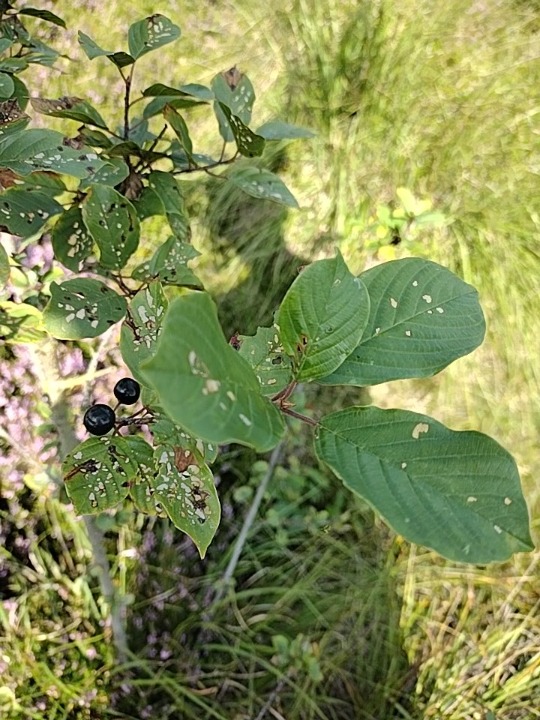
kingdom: Plantae
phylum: Tracheophyta
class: Magnoliopsida
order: Rosales
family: Rhamnaceae
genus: Frangula
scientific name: Frangula alnus
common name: Tørst
